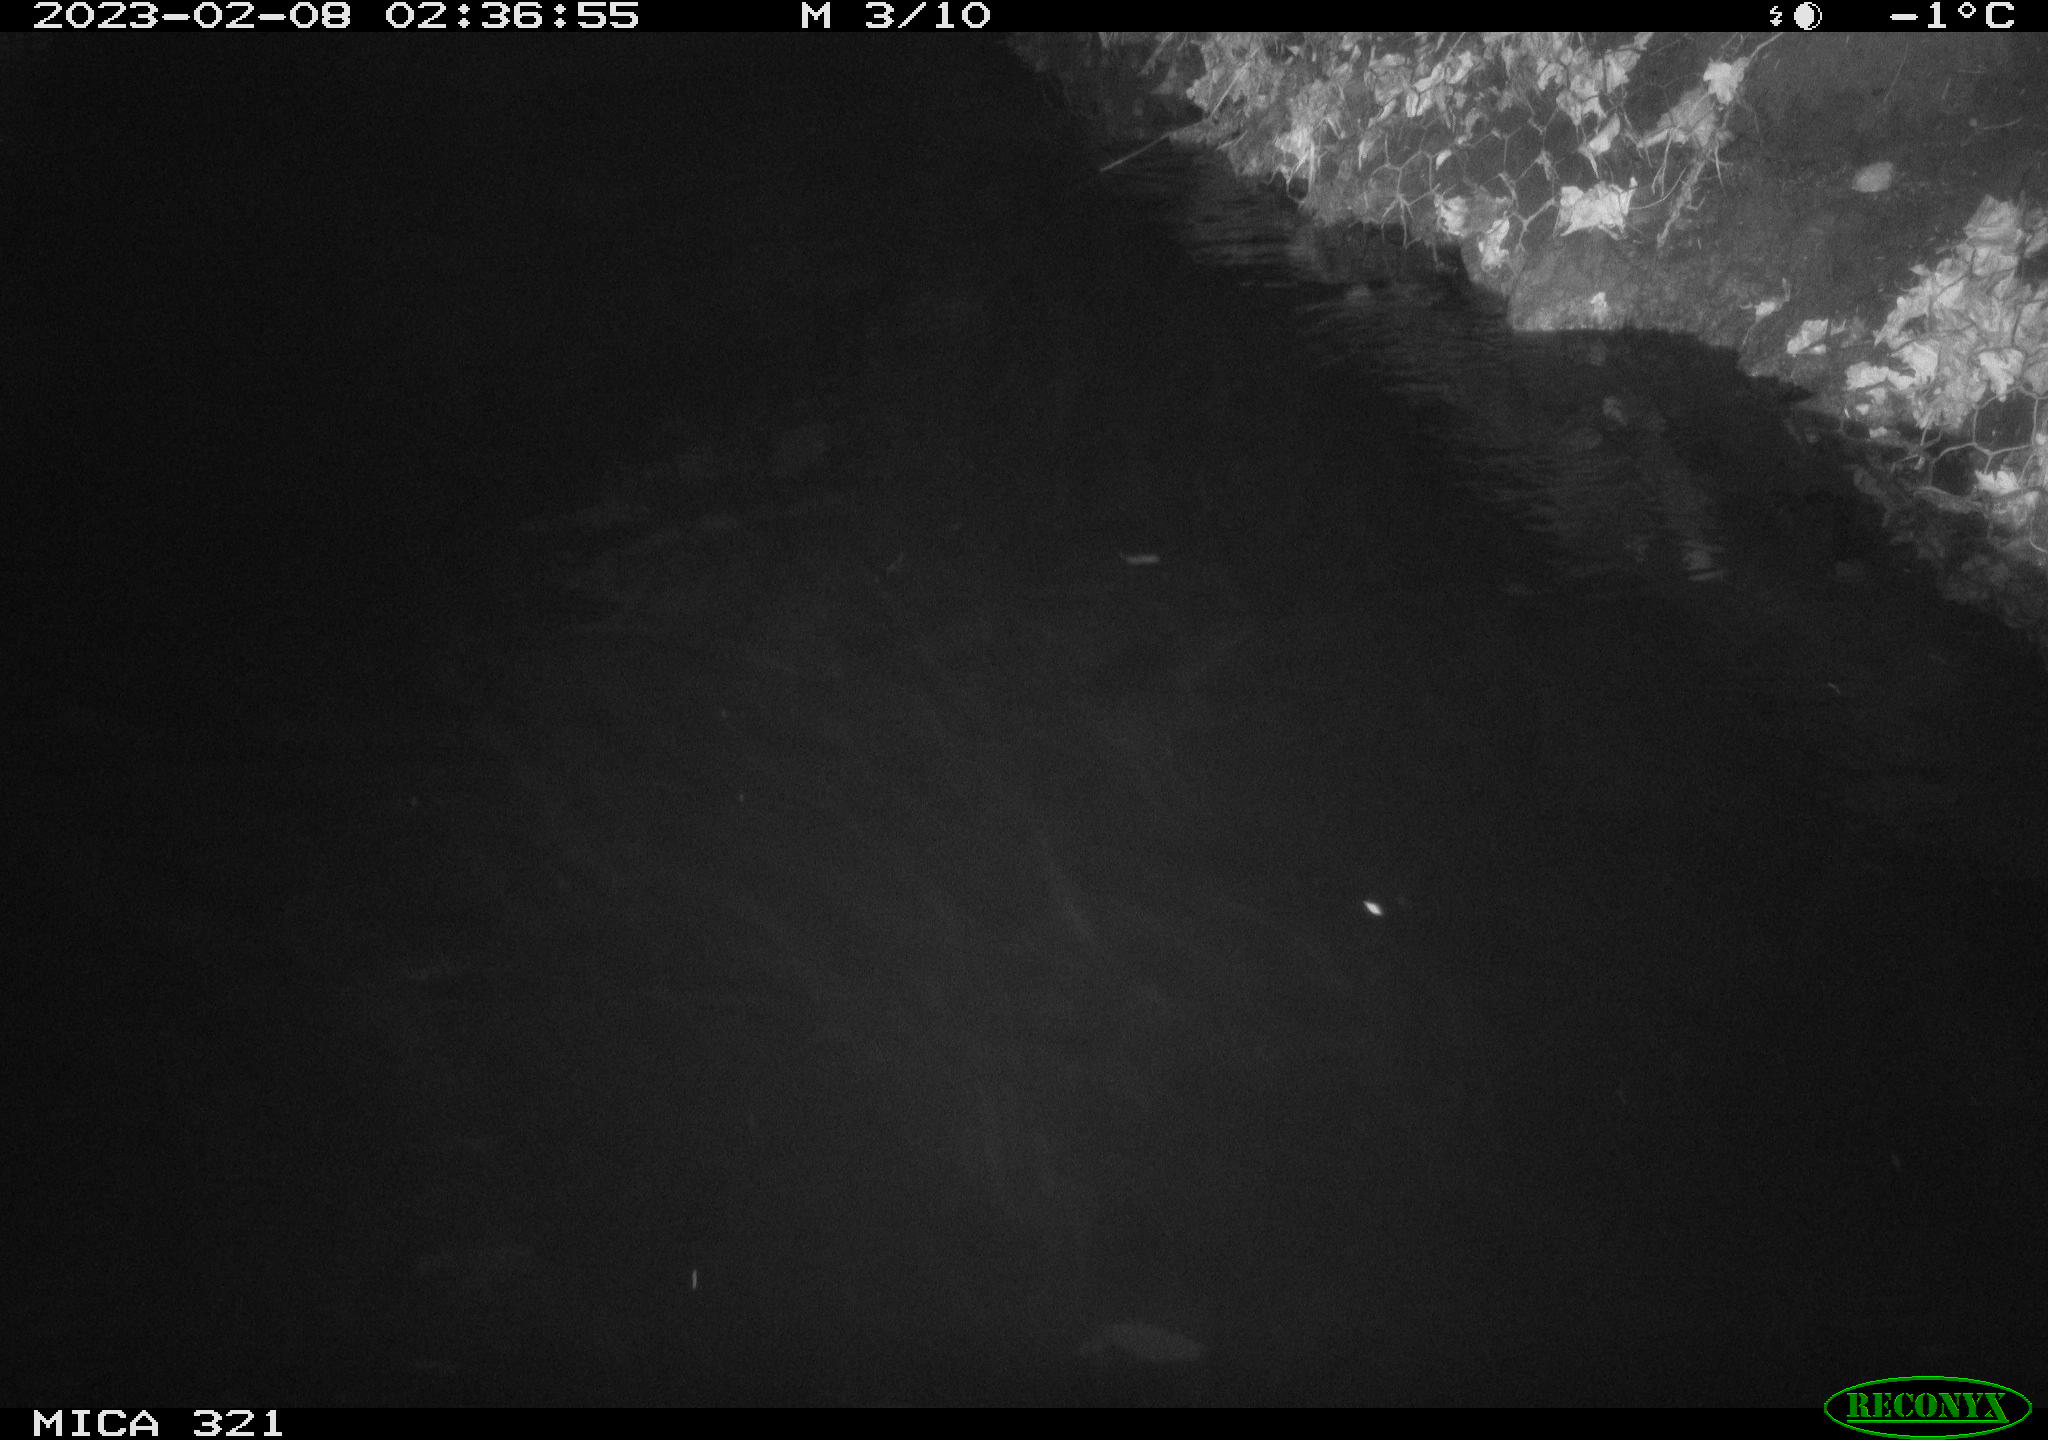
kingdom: Animalia
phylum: Chordata
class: Aves
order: Anseriformes
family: Anatidae
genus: Anas
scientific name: Anas
